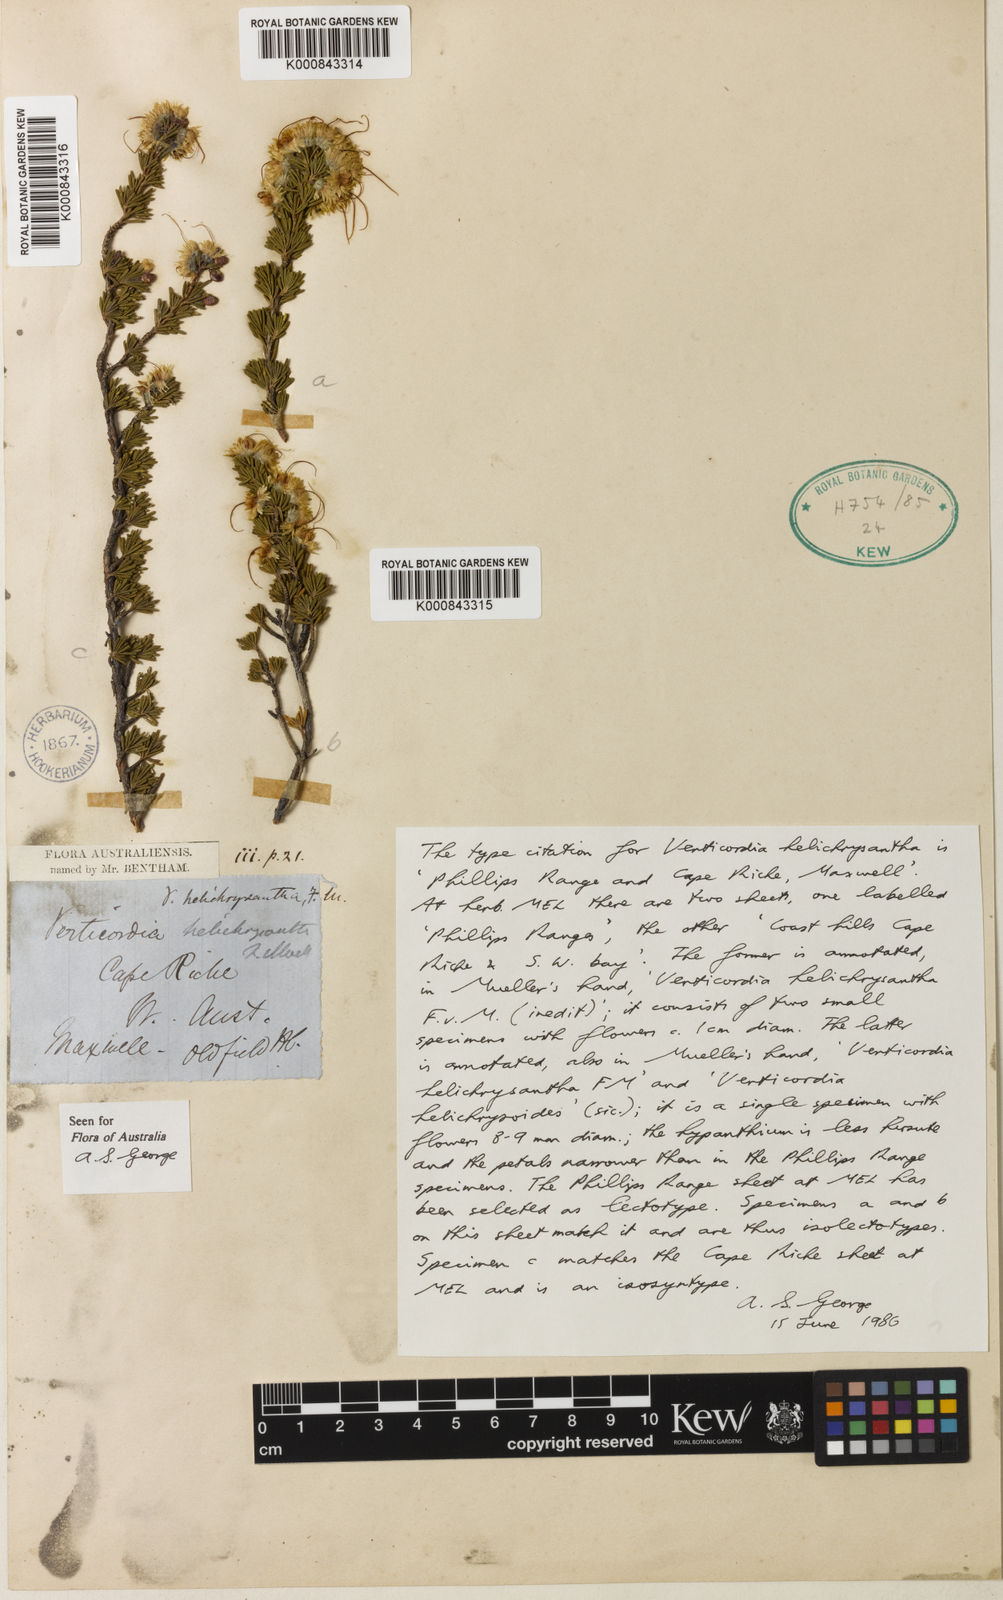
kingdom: Plantae
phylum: Tracheophyta
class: Magnoliopsida
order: Myrtales
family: Myrtaceae
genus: Verticordia
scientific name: Verticordia helichrysantha
